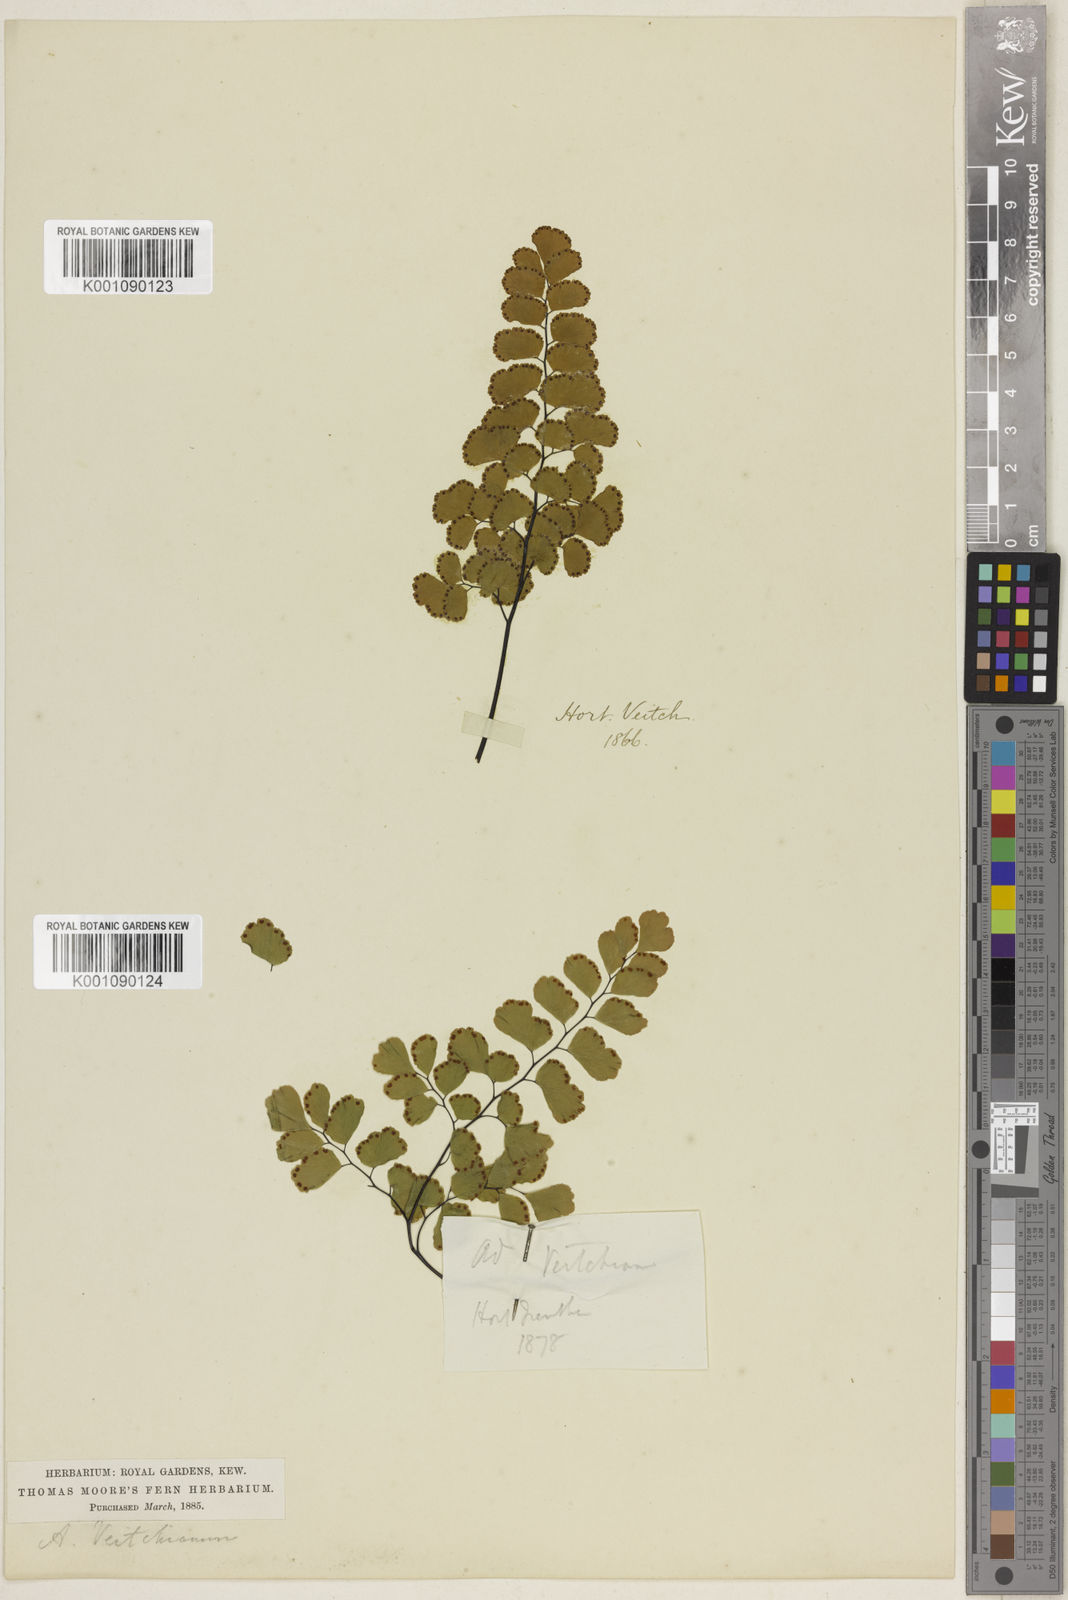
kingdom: Plantae
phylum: Tracheophyta
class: Polypodiopsida
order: Polypodiales
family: Pteridaceae
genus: Adiantum
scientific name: Adiantum ruizianum
